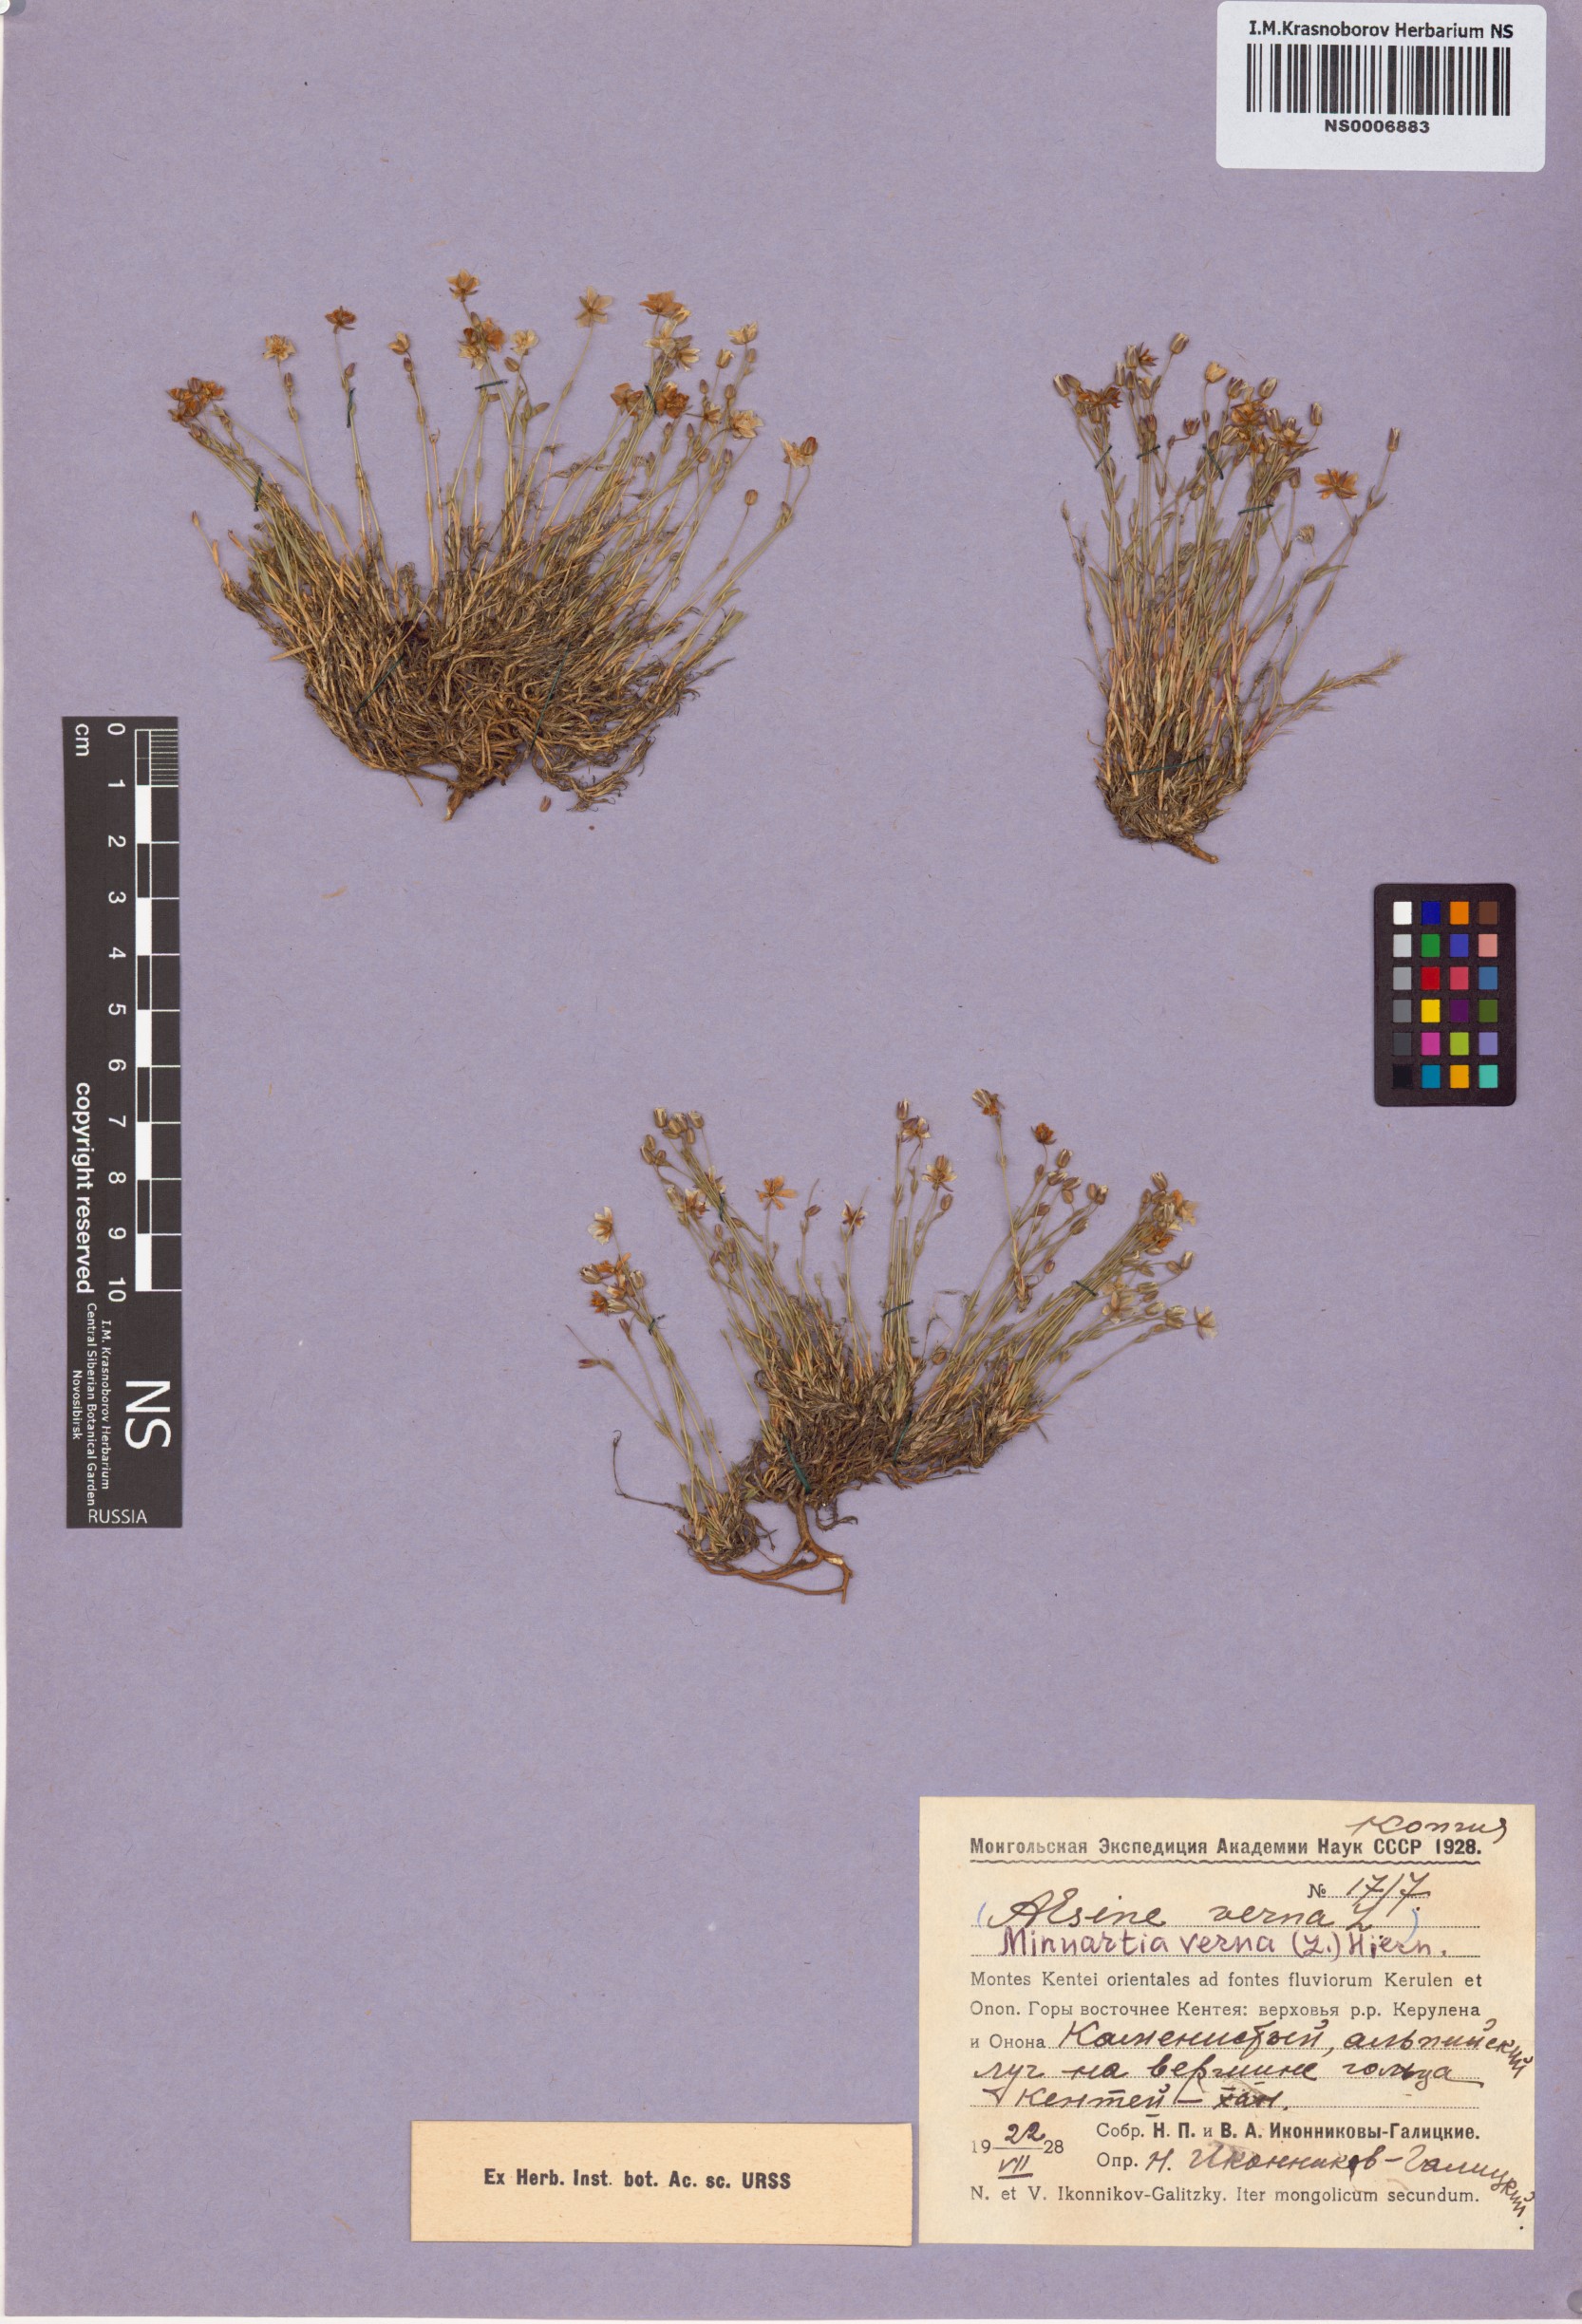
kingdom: Plantae
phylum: Tracheophyta
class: Magnoliopsida
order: Caryophyllales
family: Caryophyllaceae
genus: Sabulina
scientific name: Sabulina verna
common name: Spring sandwort
